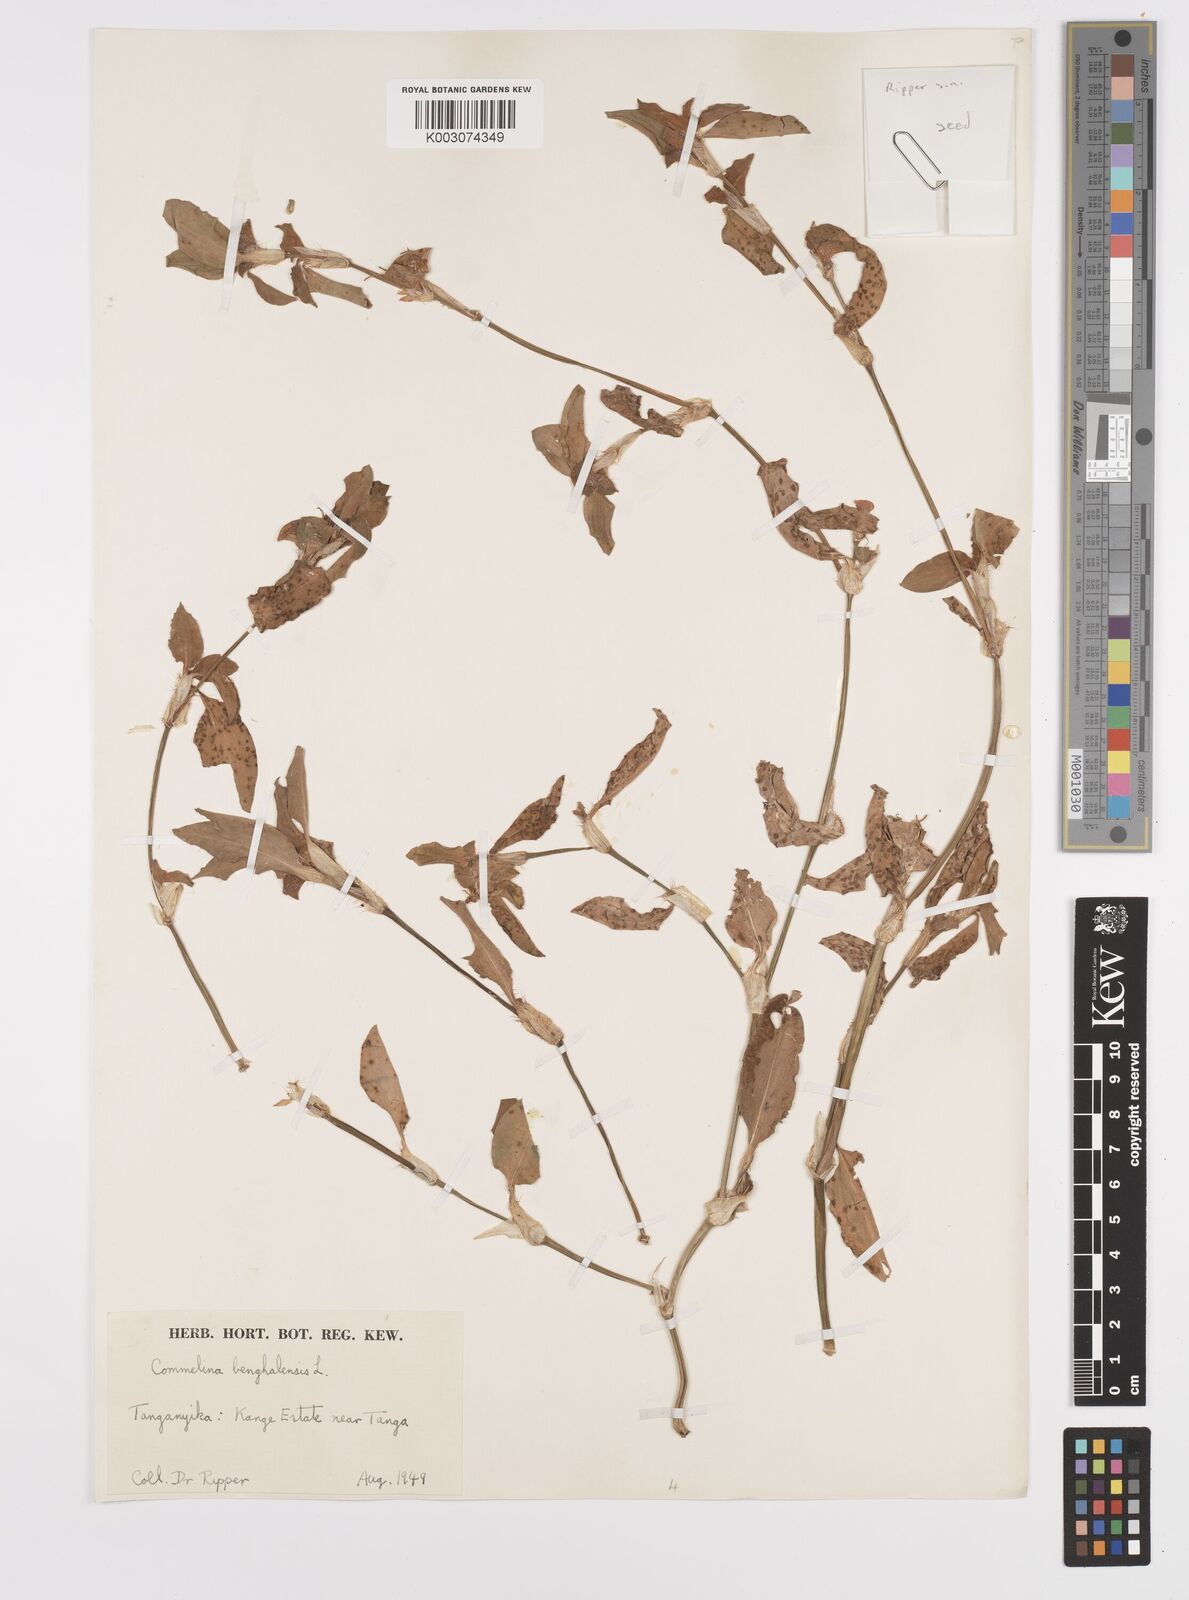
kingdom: Plantae
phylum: Tracheophyta
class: Liliopsida
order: Commelinales
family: Commelinaceae
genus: Commelina
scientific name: Commelina benghalensis
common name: Jio
